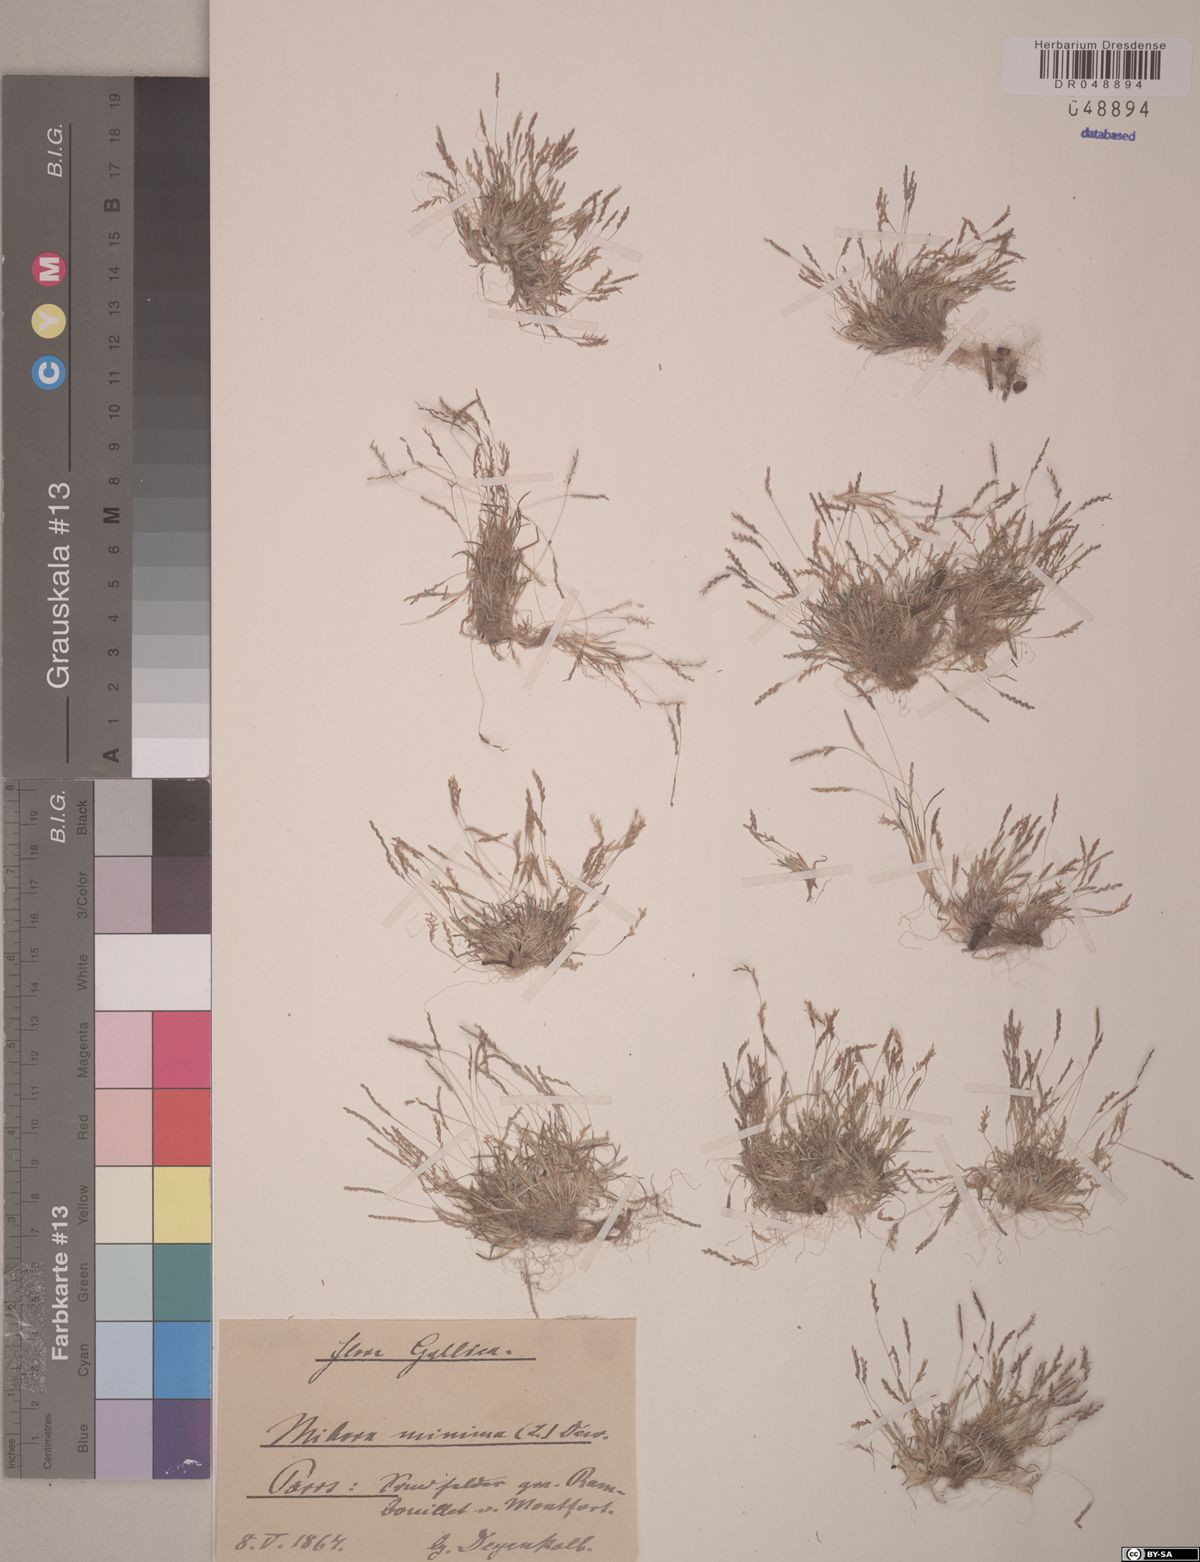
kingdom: Plantae
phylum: Tracheophyta
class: Liliopsida
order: Poales
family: Poaceae
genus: Mibora
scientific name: Mibora minima
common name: Early sand-grass
